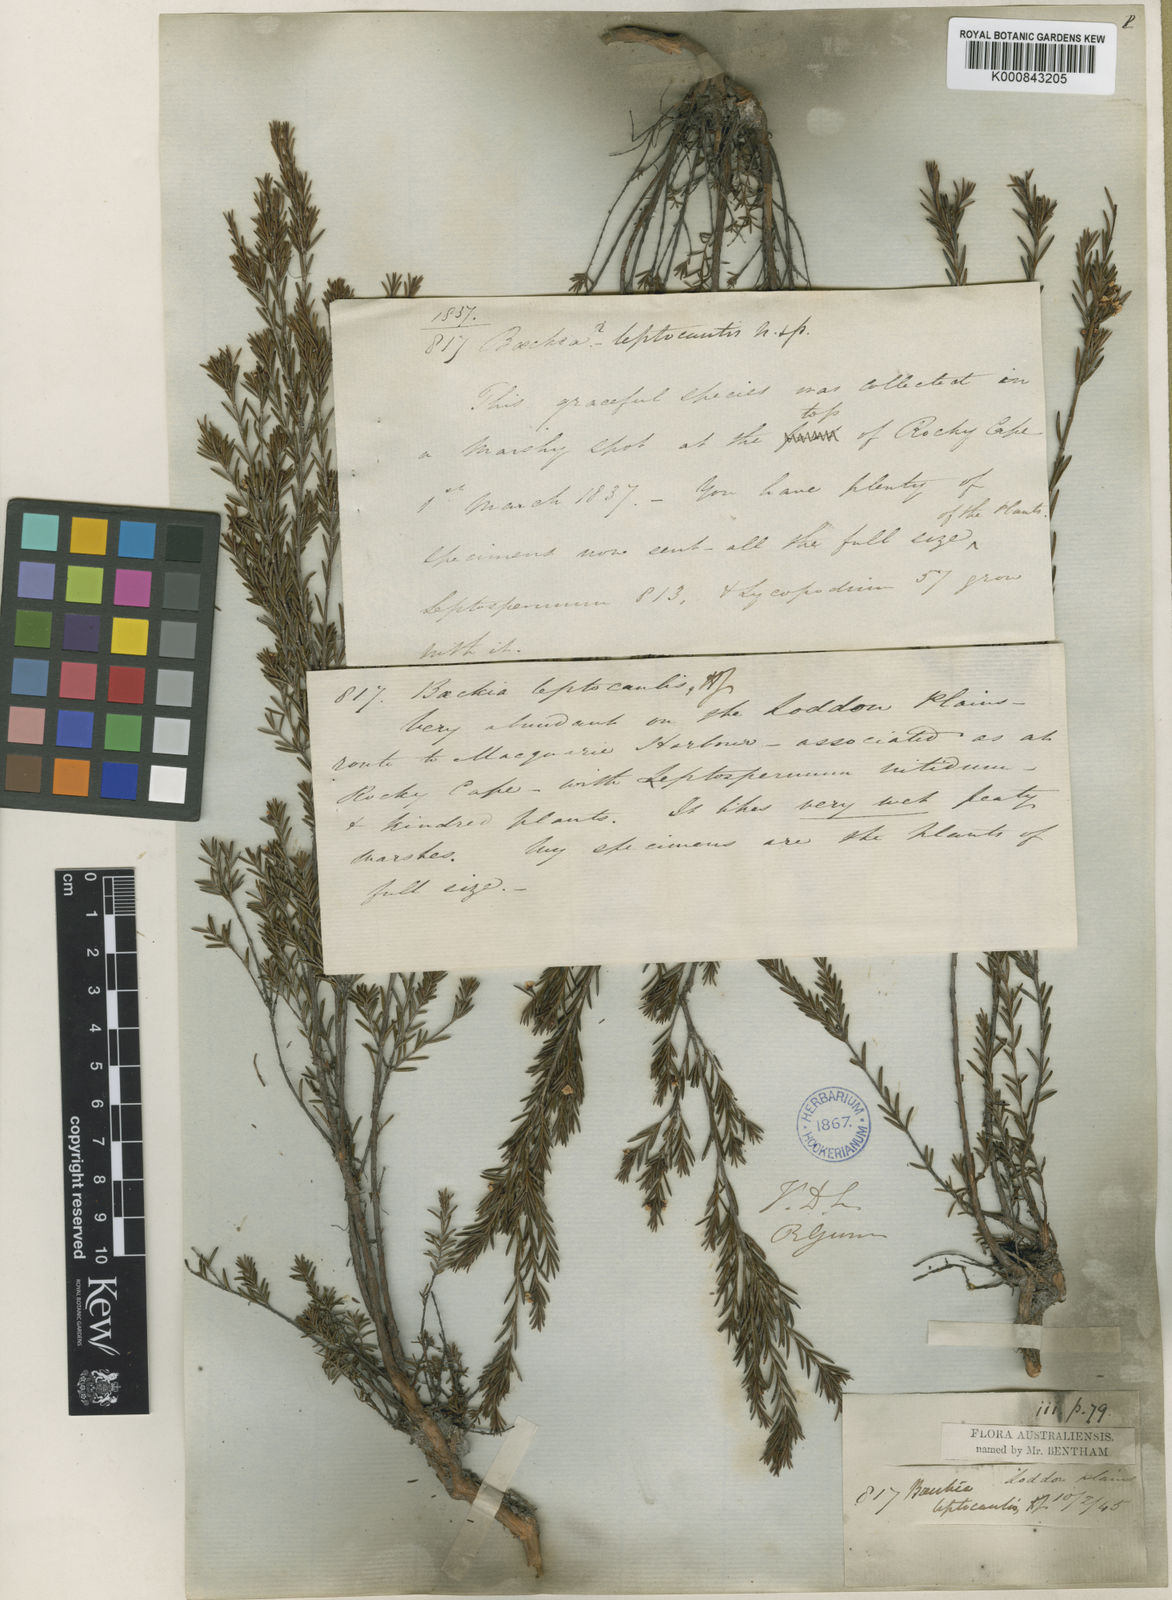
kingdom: Plantae
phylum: Tracheophyta
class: Magnoliopsida
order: Myrtales
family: Myrtaceae
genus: Baeckea
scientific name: Baeckea leptocaulis
